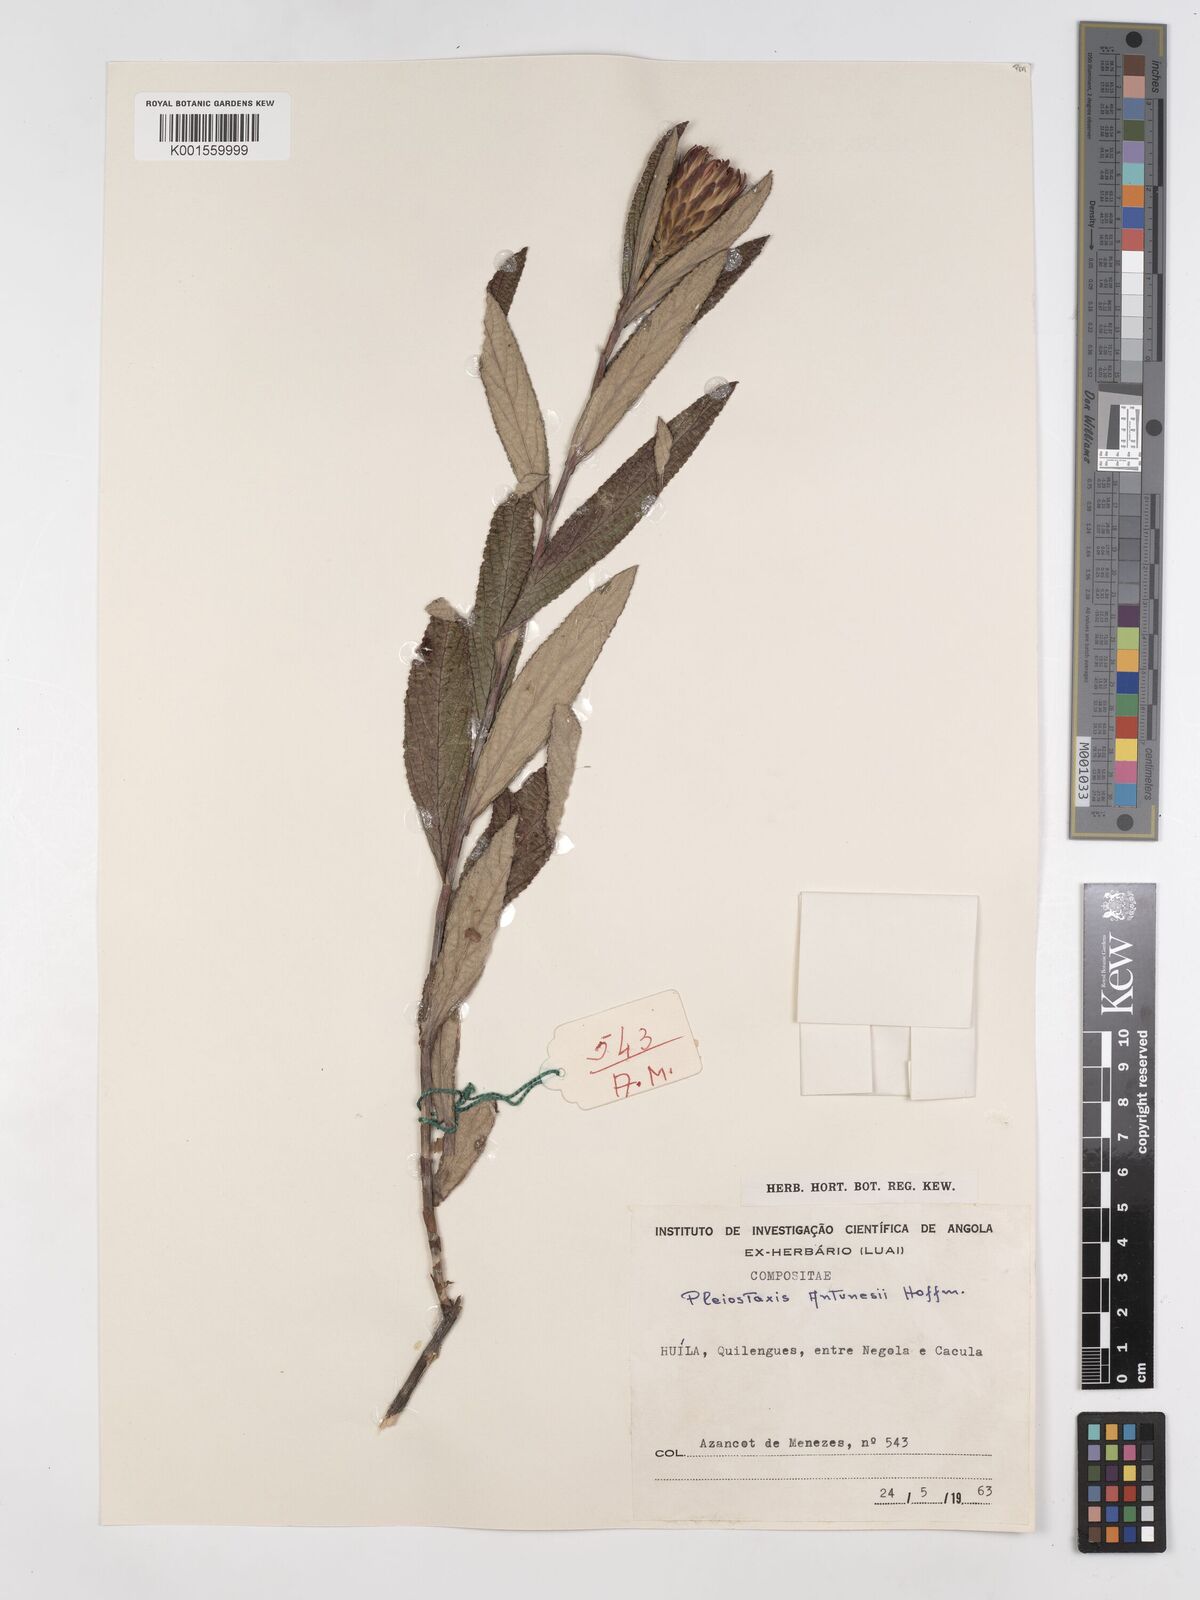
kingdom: Plantae
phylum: Tracheophyta
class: Magnoliopsida
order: Asterales
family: Asteraceae
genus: Pleiotaxis
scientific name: Pleiotaxis rugosa
